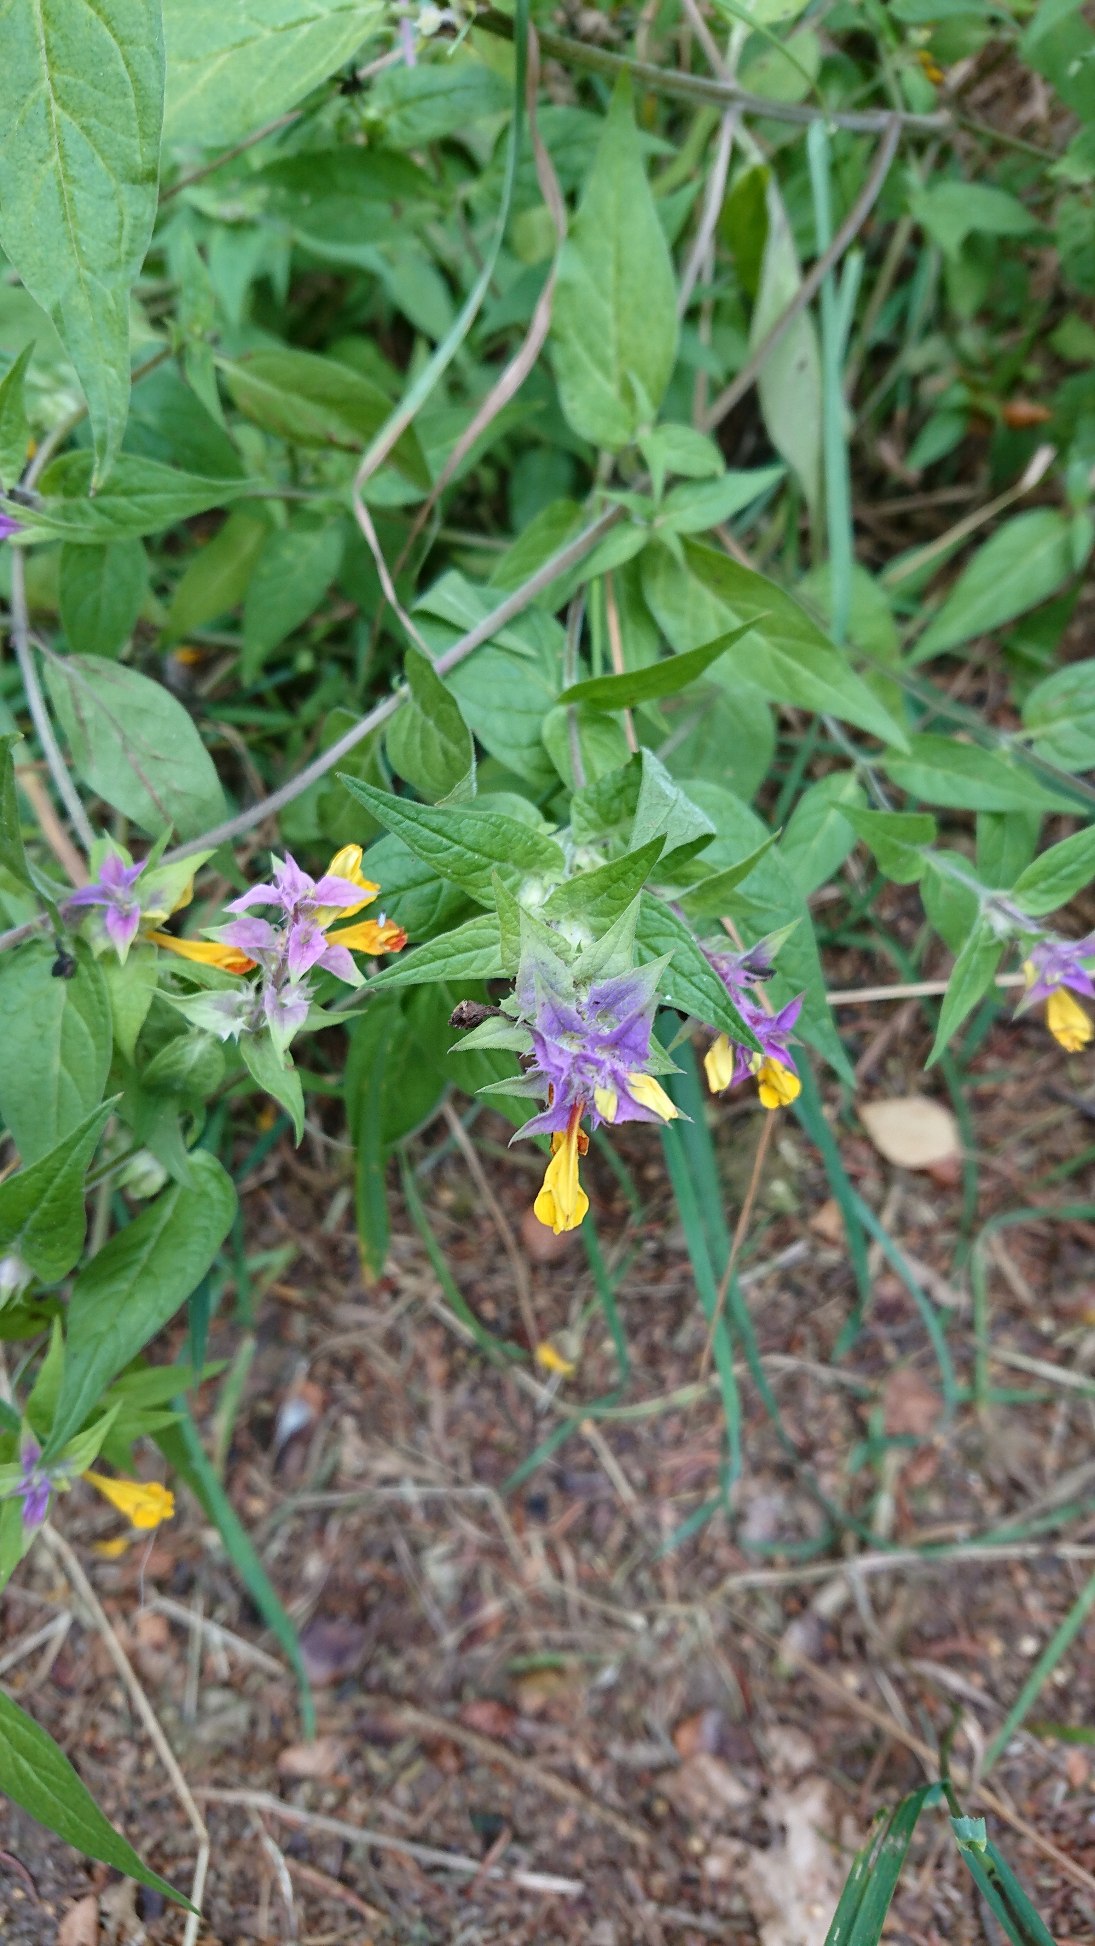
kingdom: Plantae
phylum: Tracheophyta
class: Magnoliopsida
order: Lamiales
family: Orobanchaceae
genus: Melampyrum
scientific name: Melampyrum nemorosum
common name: Blåtoppet kohvede
